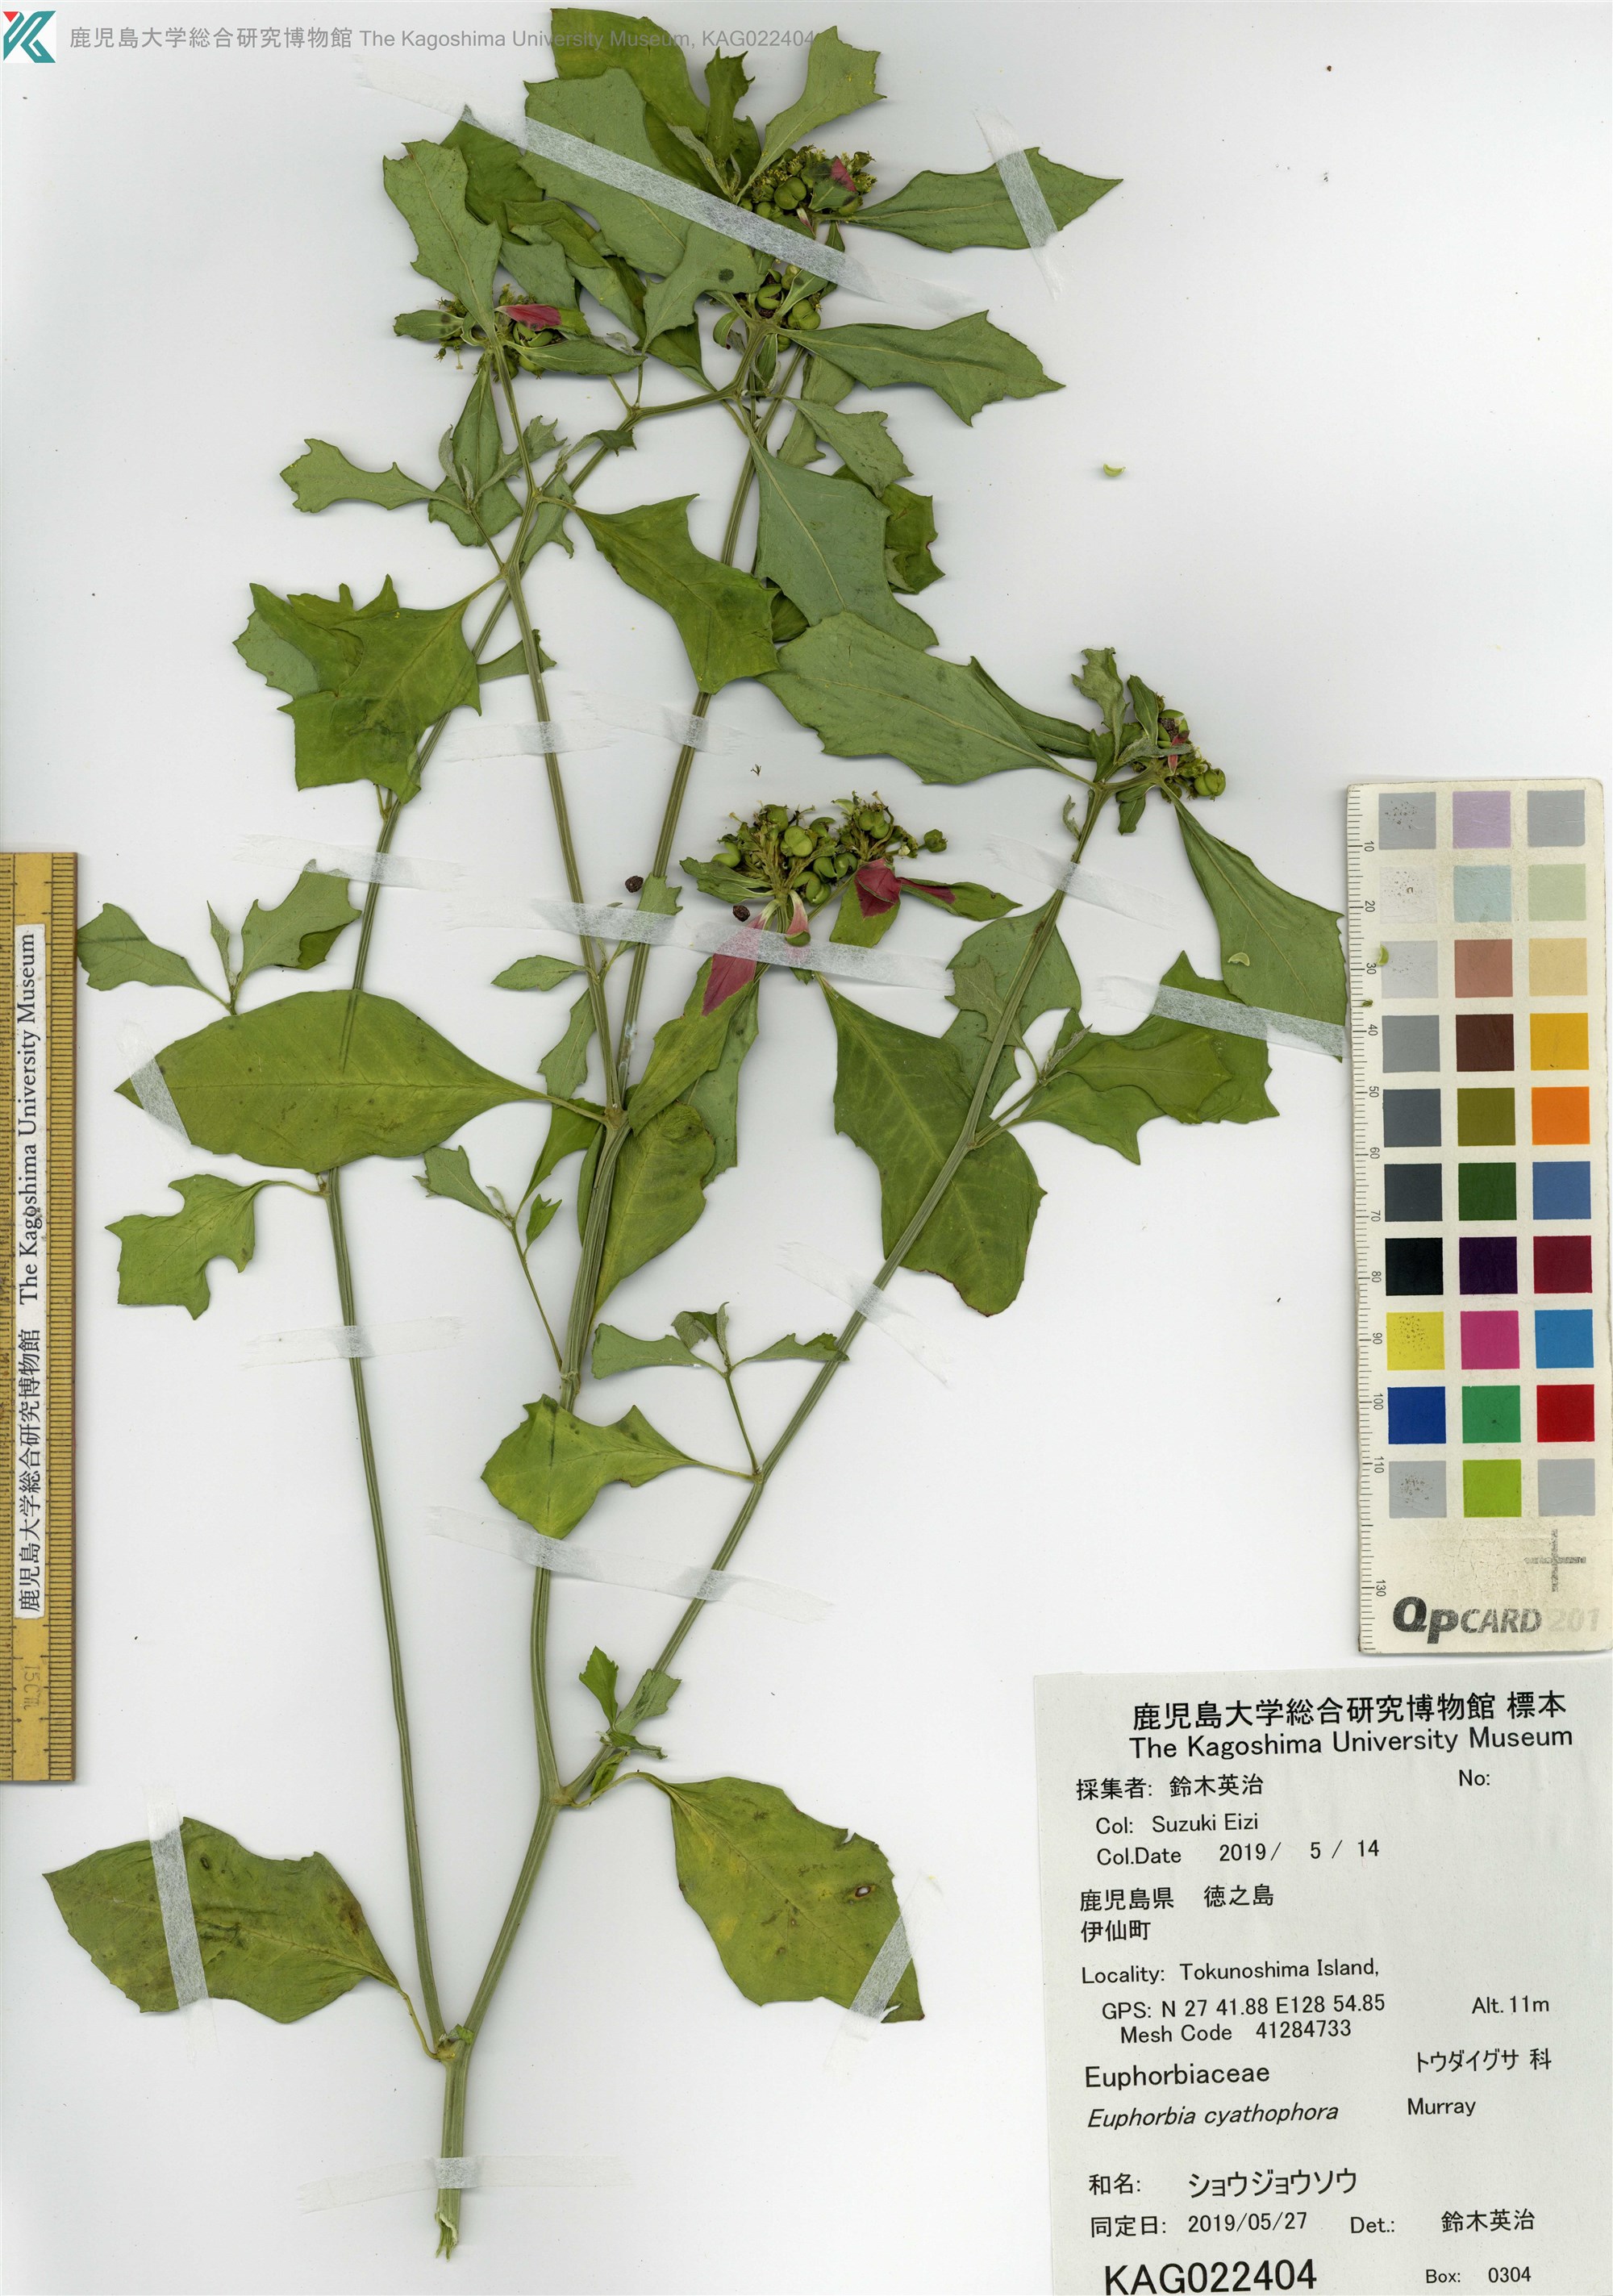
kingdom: Plantae
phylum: Tracheophyta
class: Magnoliopsida
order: Malpighiales
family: Euphorbiaceae
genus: Euphorbia
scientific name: Euphorbia heterophylla
